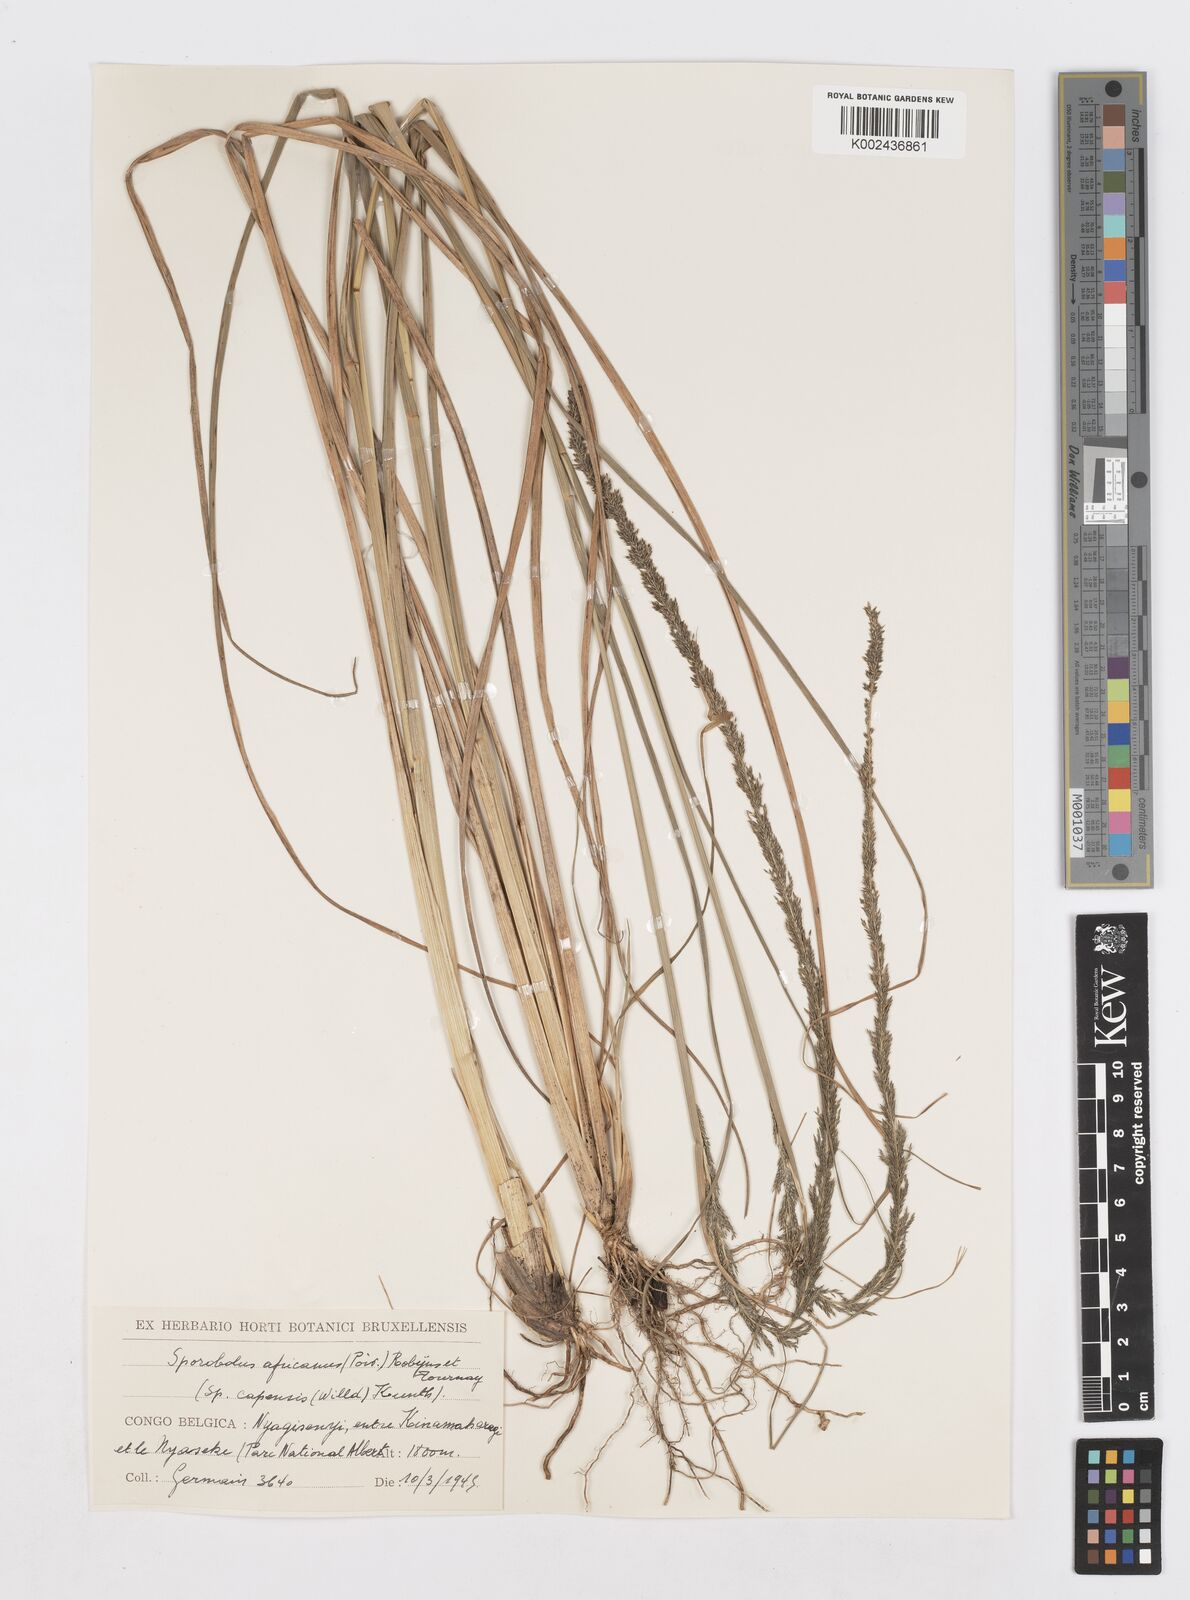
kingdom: Plantae
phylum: Tracheophyta
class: Liliopsida
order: Poales
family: Poaceae
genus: Sporobolus
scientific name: Sporobolus africanus
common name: African dropseed
